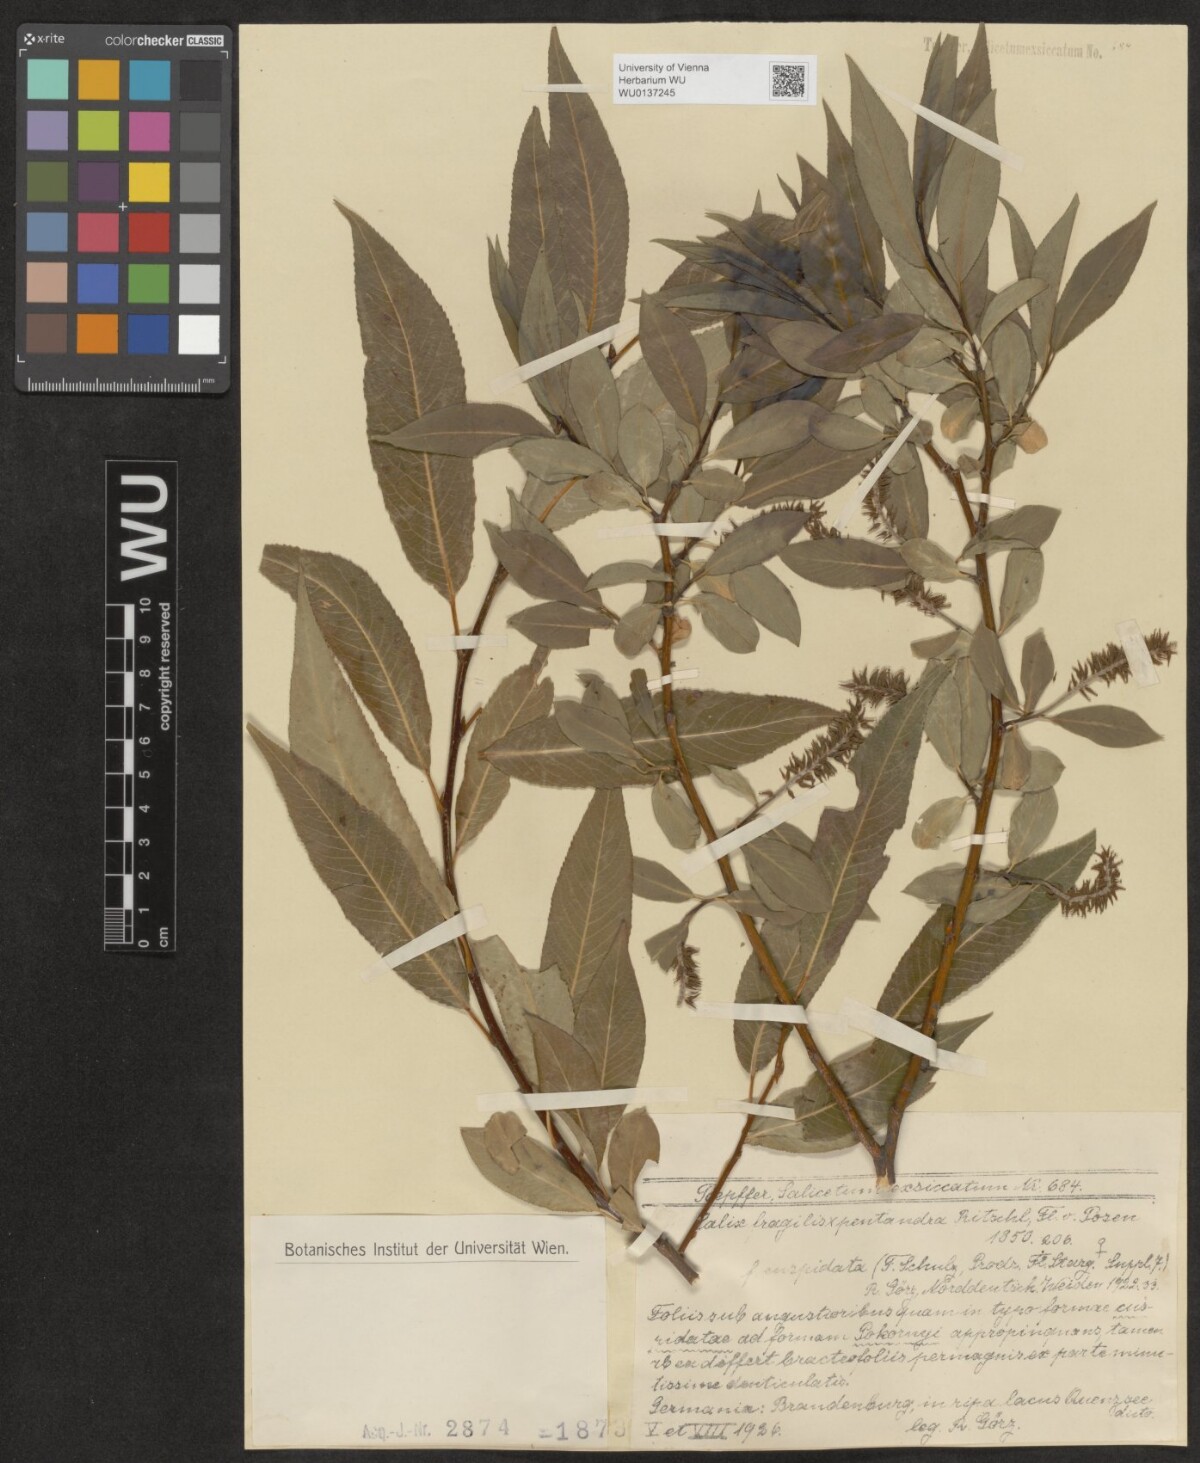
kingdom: Plantae
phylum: Tracheophyta
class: Magnoliopsida
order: Malpighiales
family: Salicaceae
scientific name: Salicaceae
